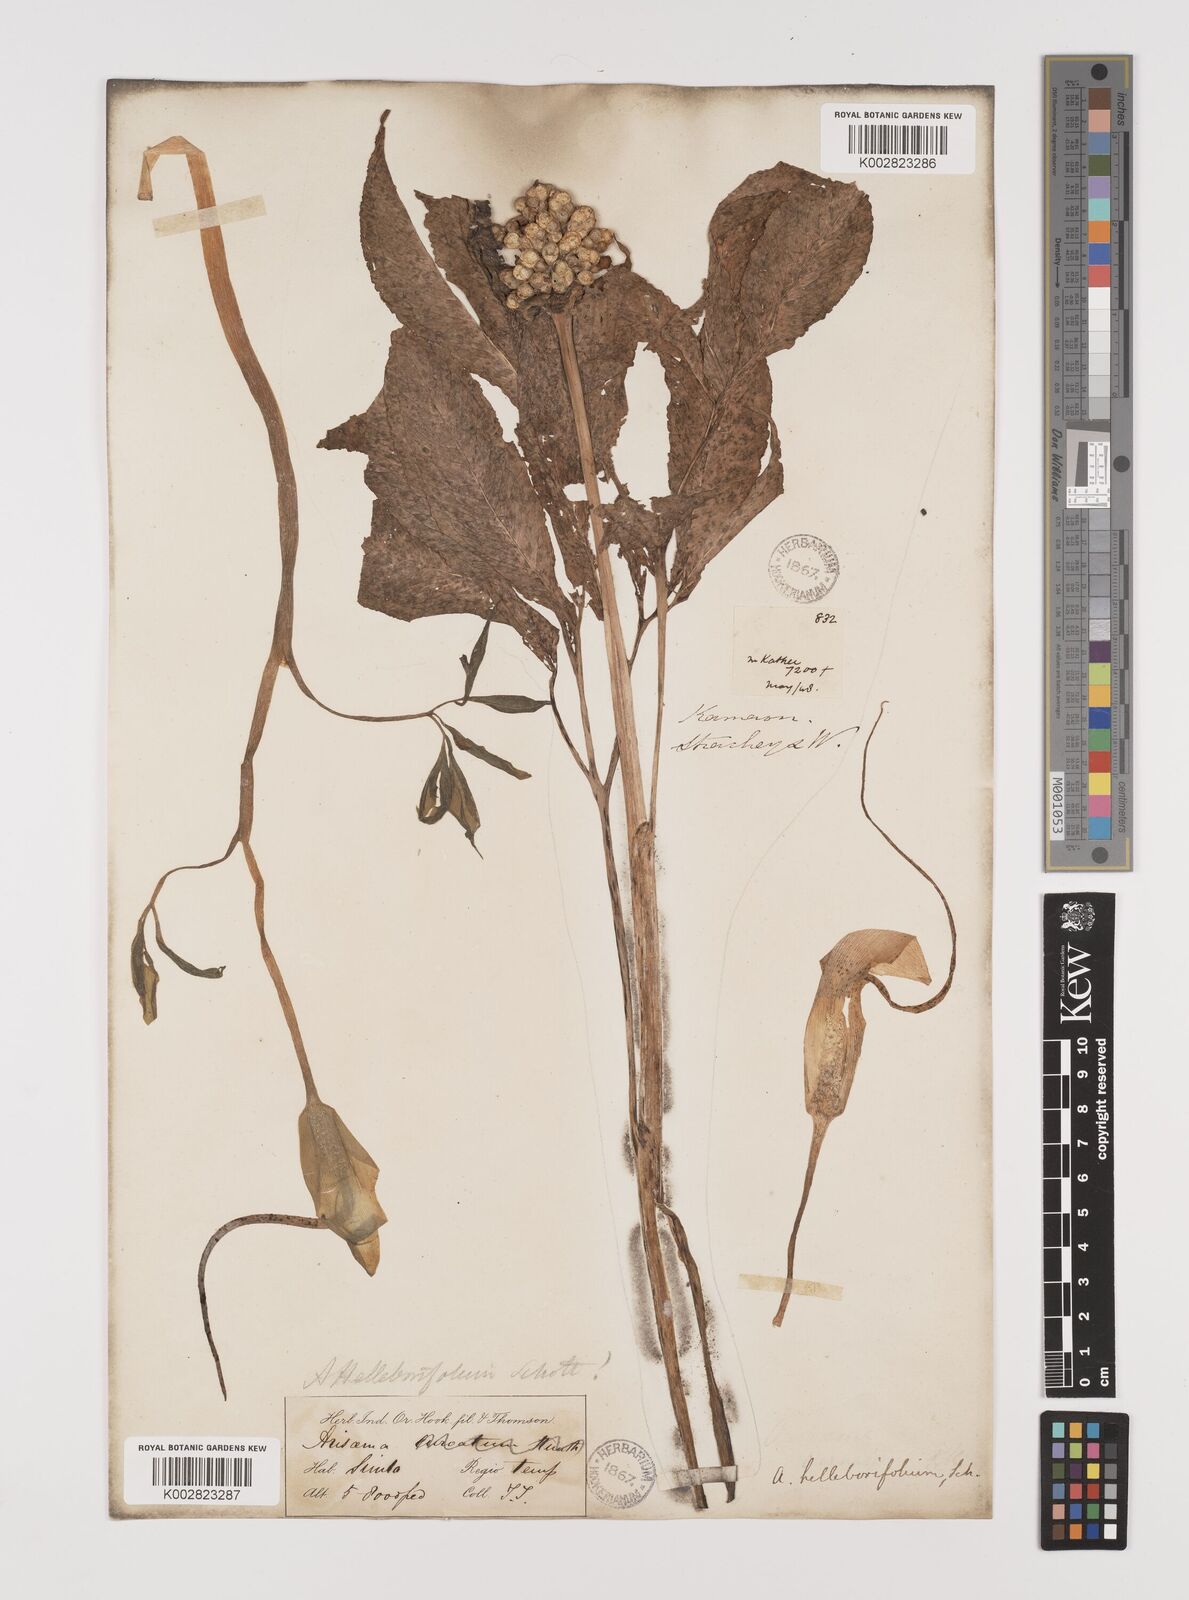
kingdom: Plantae
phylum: Tracheophyta
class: Liliopsida
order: Alismatales
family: Araceae
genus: Arisaema
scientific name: Arisaema tortuosum
